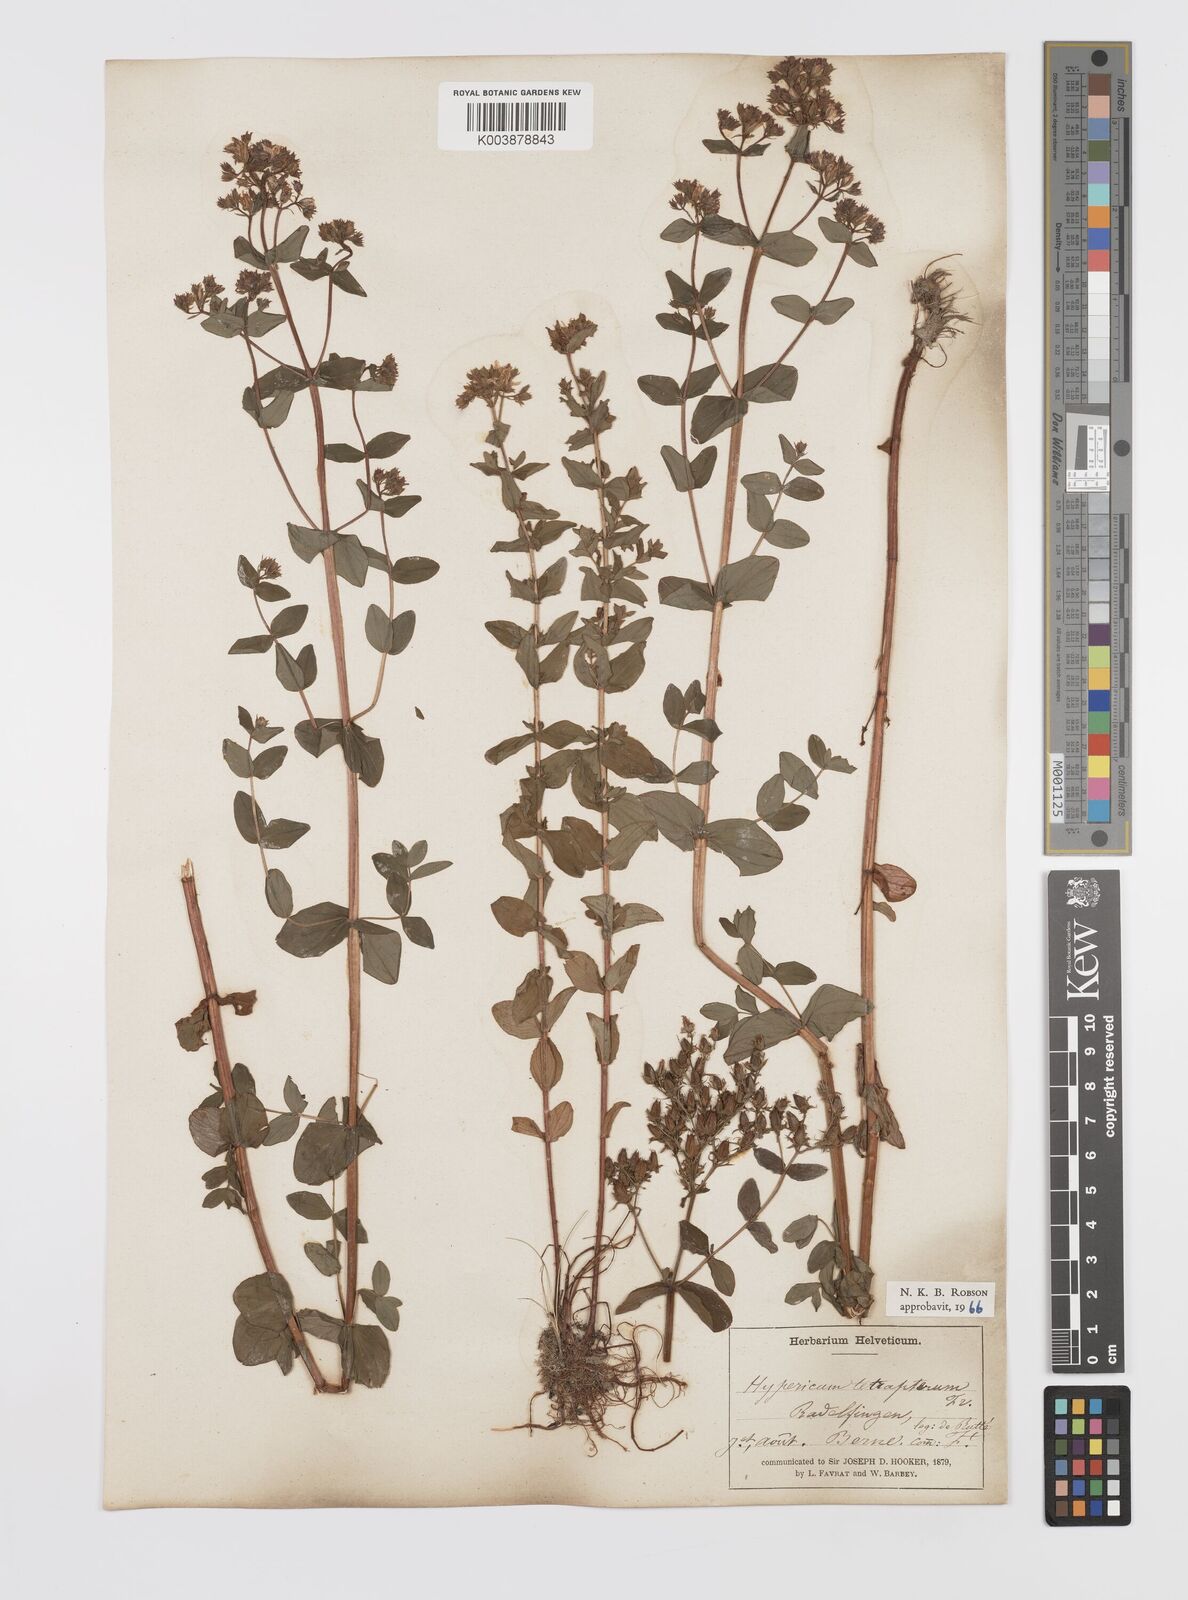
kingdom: Plantae
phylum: Tracheophyta
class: Magnoliopsida
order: Malpighiales
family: Hypericaceae
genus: Hypericum
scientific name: Hypericum tetrapterum
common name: Square-stalked st. john's-wort
